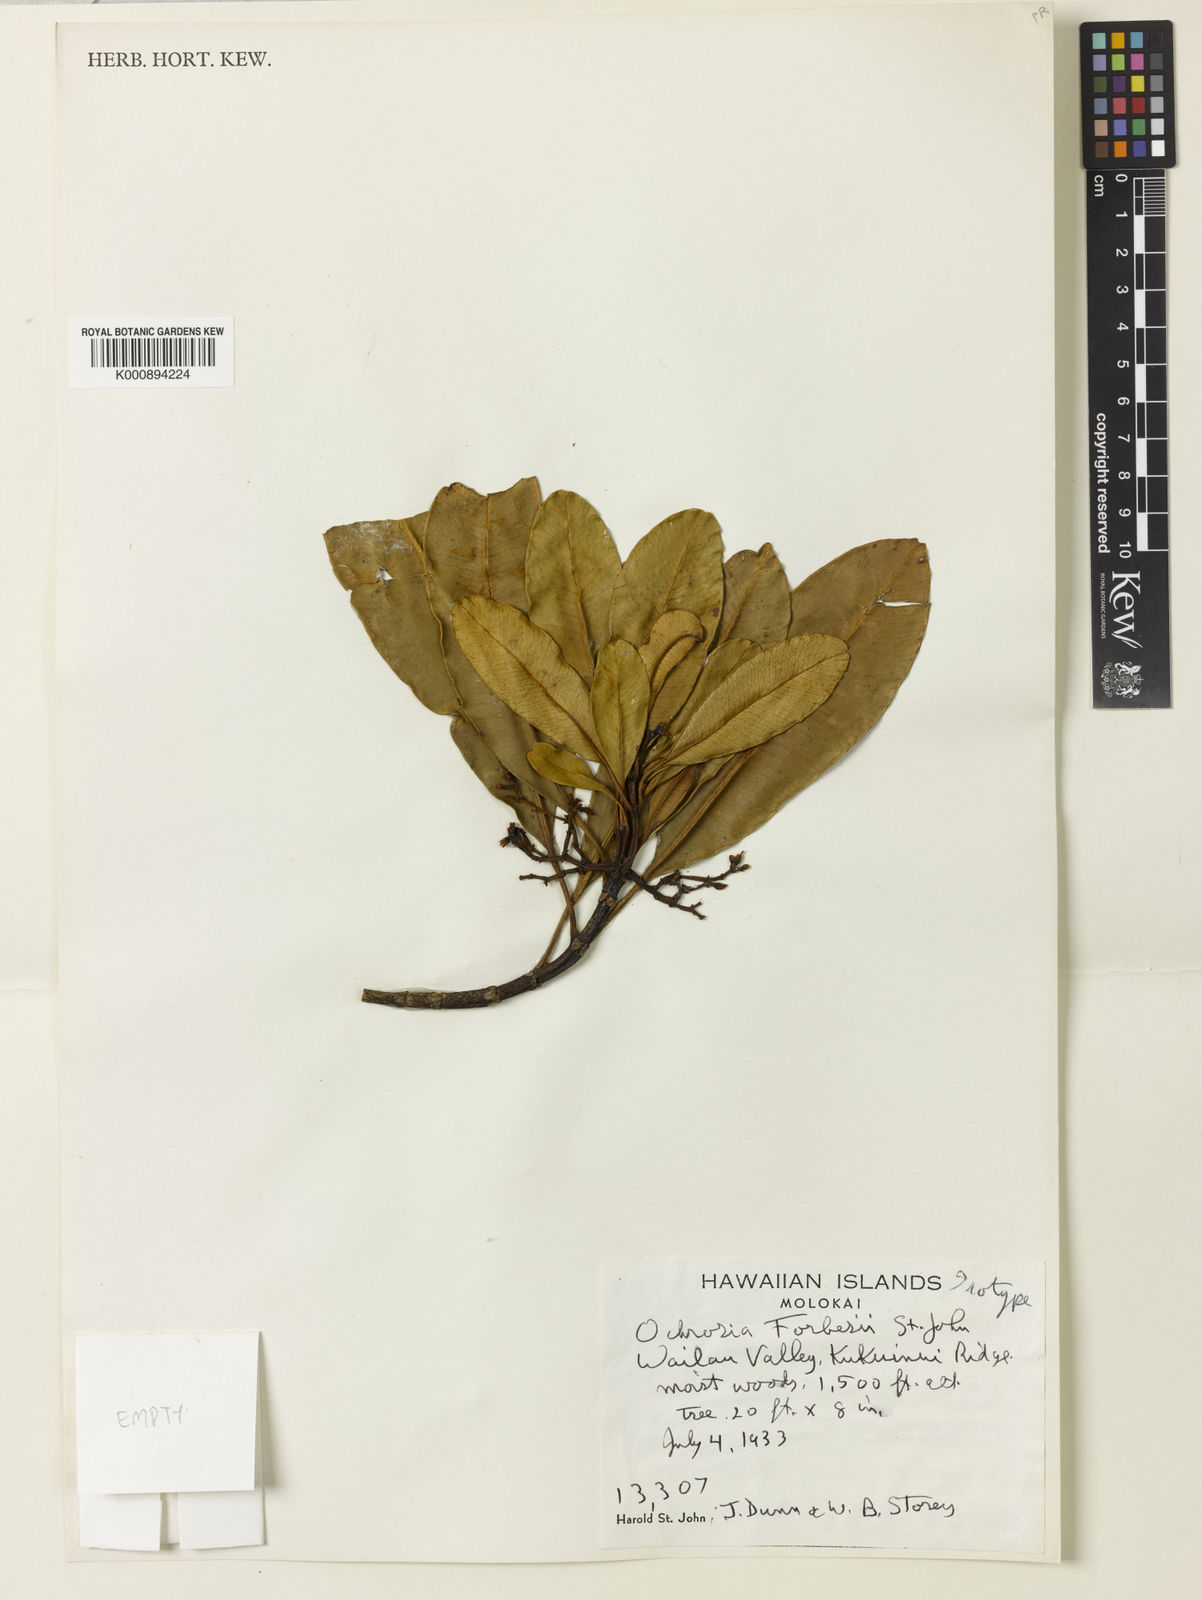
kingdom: Plantae
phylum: Tracheophyta
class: Magnoliopsida
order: Gentianales
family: Apocynaceae
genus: Ochrosia
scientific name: Ochrosia compta
